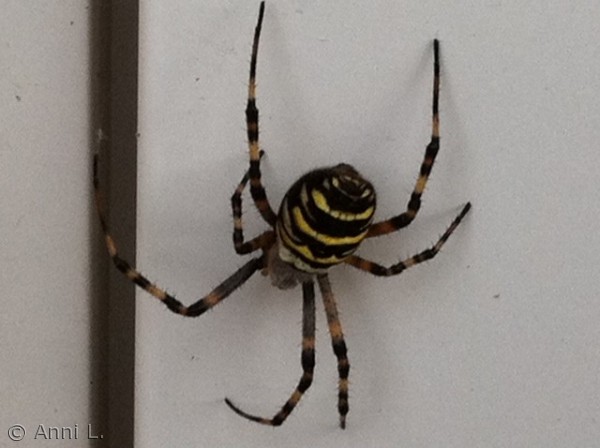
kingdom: Animalia
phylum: Arthropoda
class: Arachnida
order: Araneae
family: Araneidae
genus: Argiope
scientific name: Argiope bruennichi
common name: Hvepseedderkop
